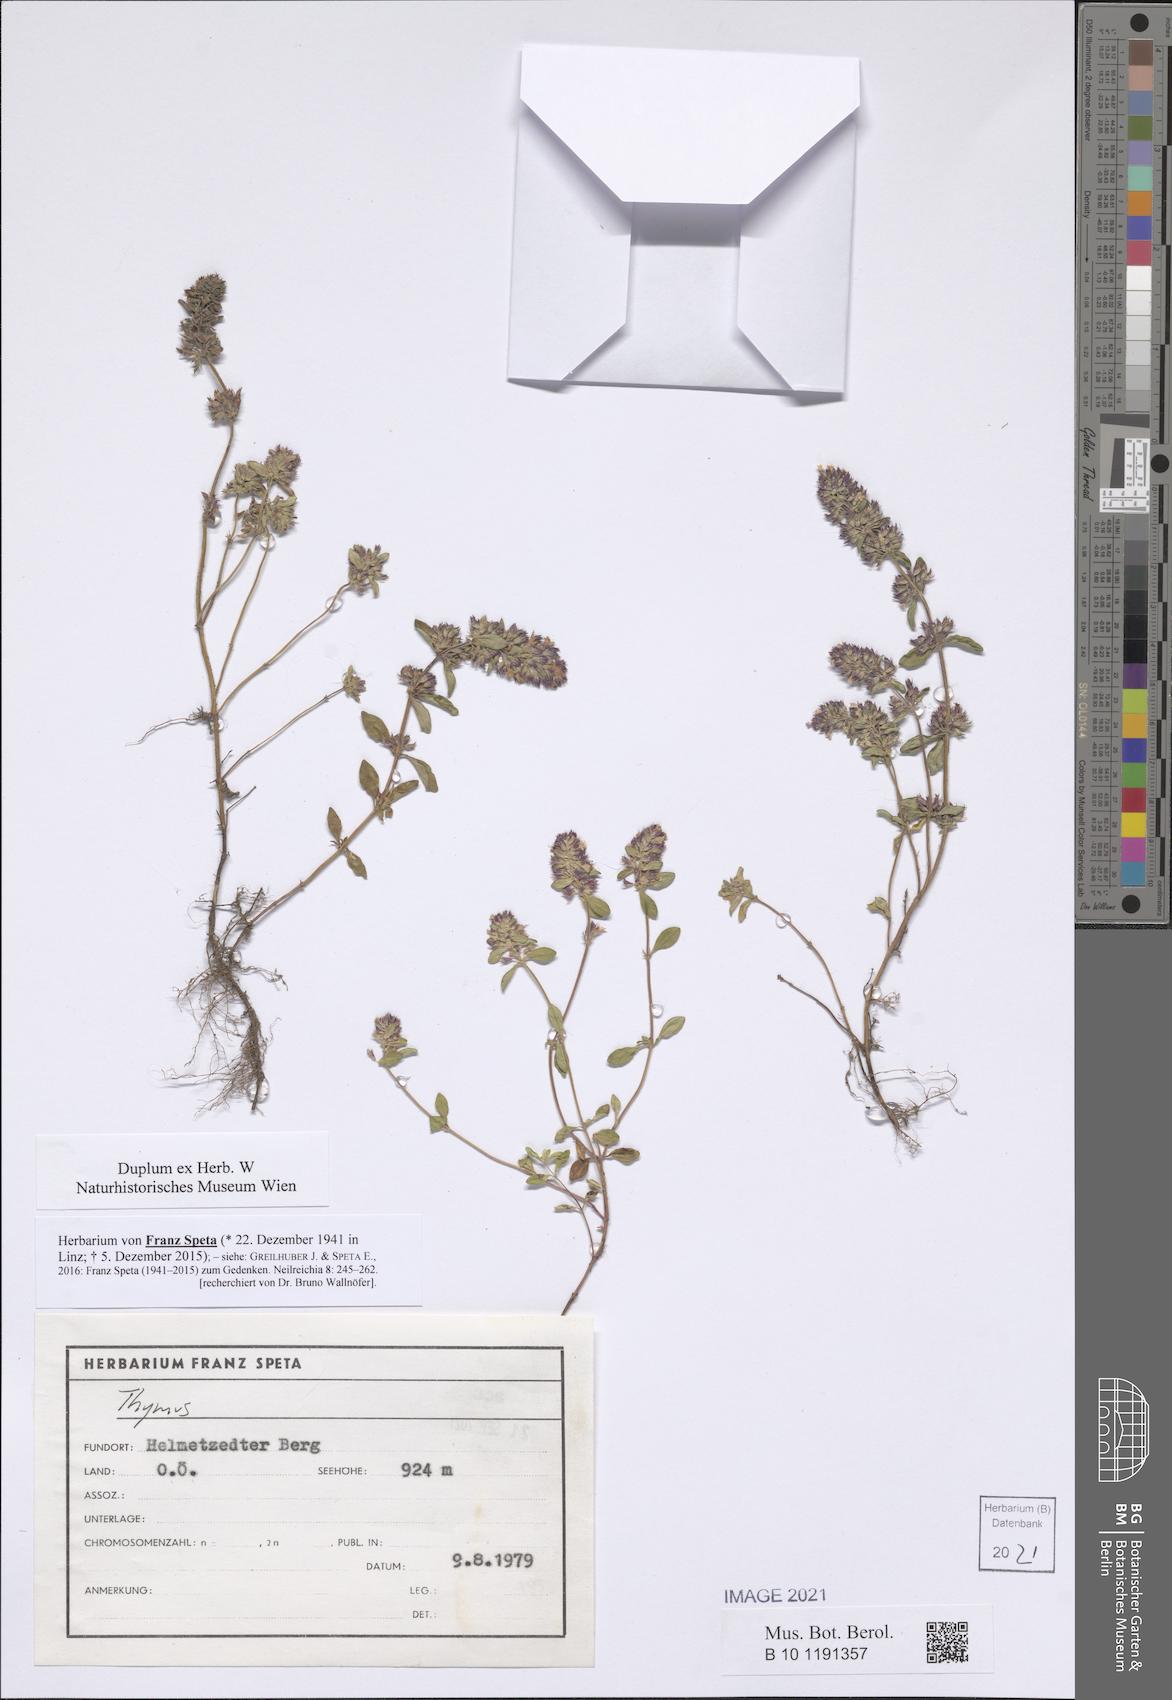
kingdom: Plantae
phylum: Tracheophyta
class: Magnoliopsida
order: Lamiales
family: Lamiaceae
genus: Thymus
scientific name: Thymus
